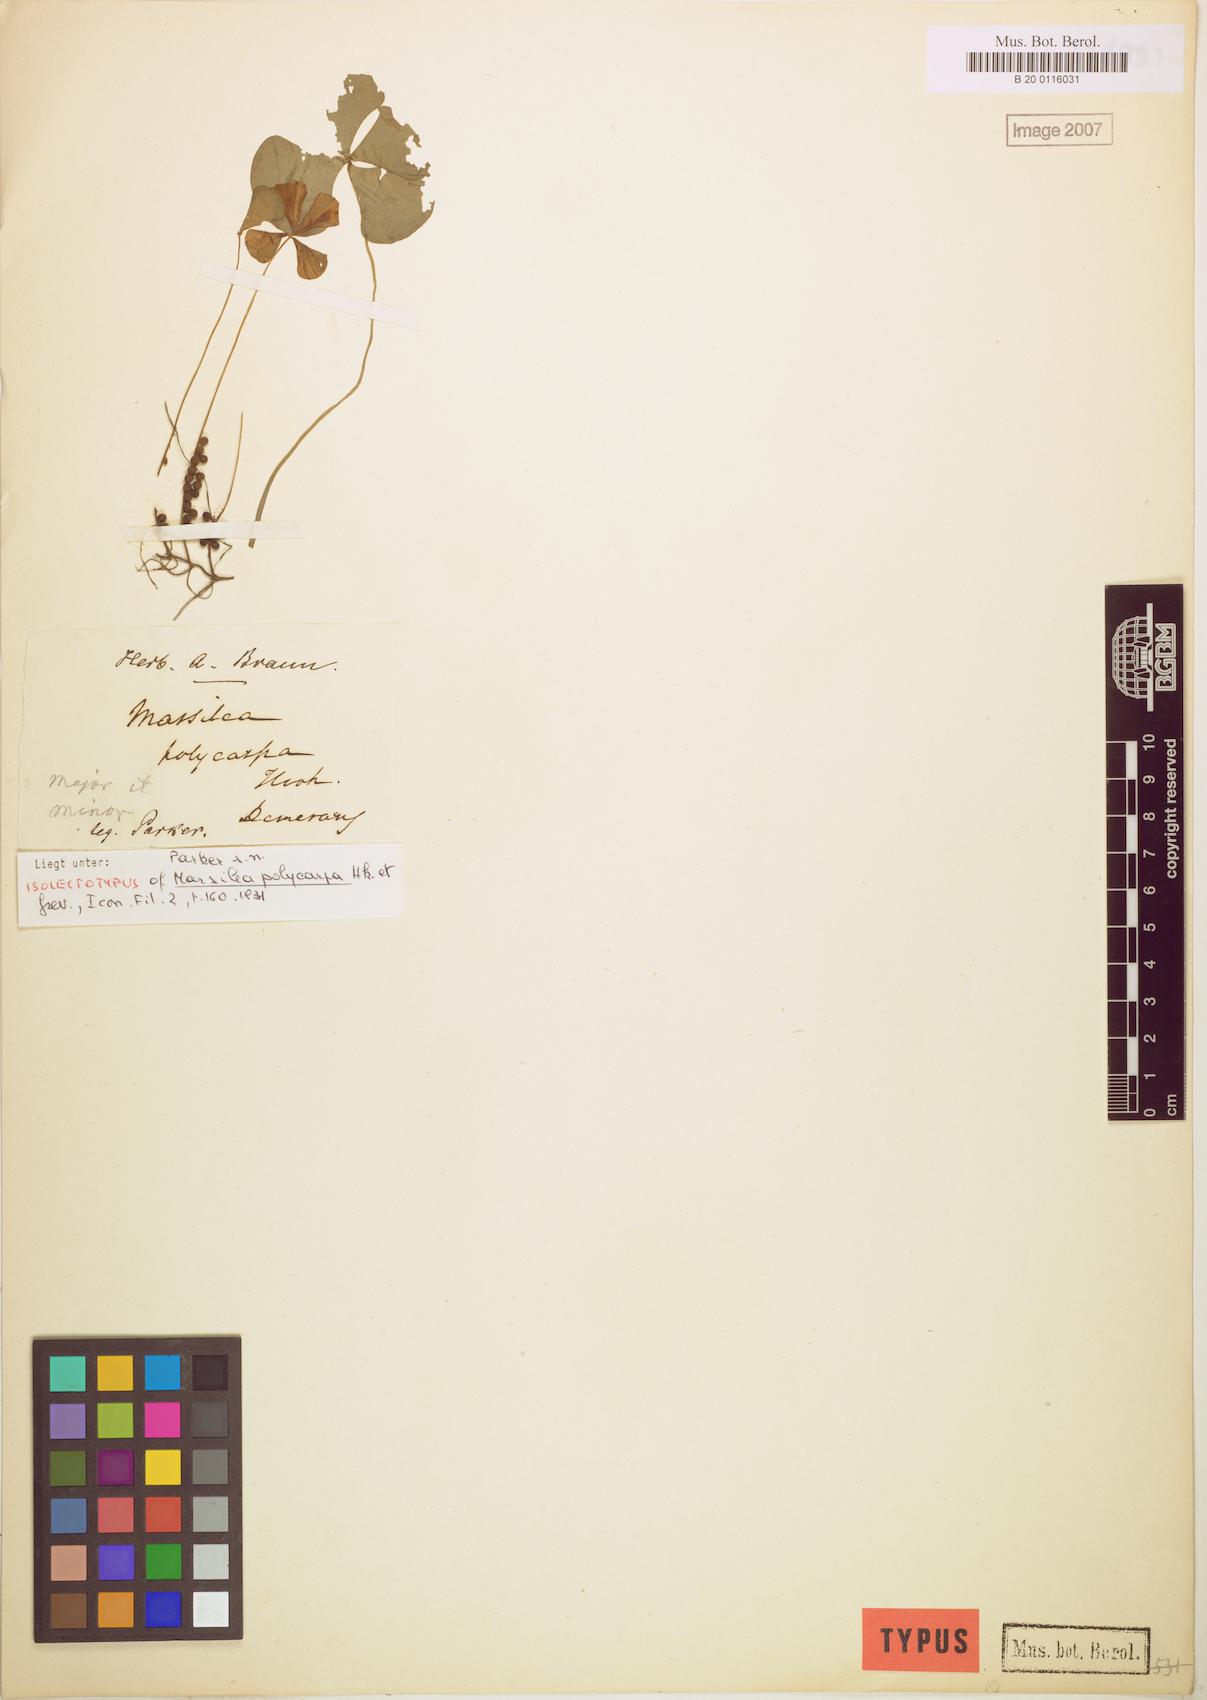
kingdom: Plantae
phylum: Tracheophyta
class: Polypodiopsida
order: Salviniales
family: Marsileaceae
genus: Marsilea
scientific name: Marsilea polycarpa
